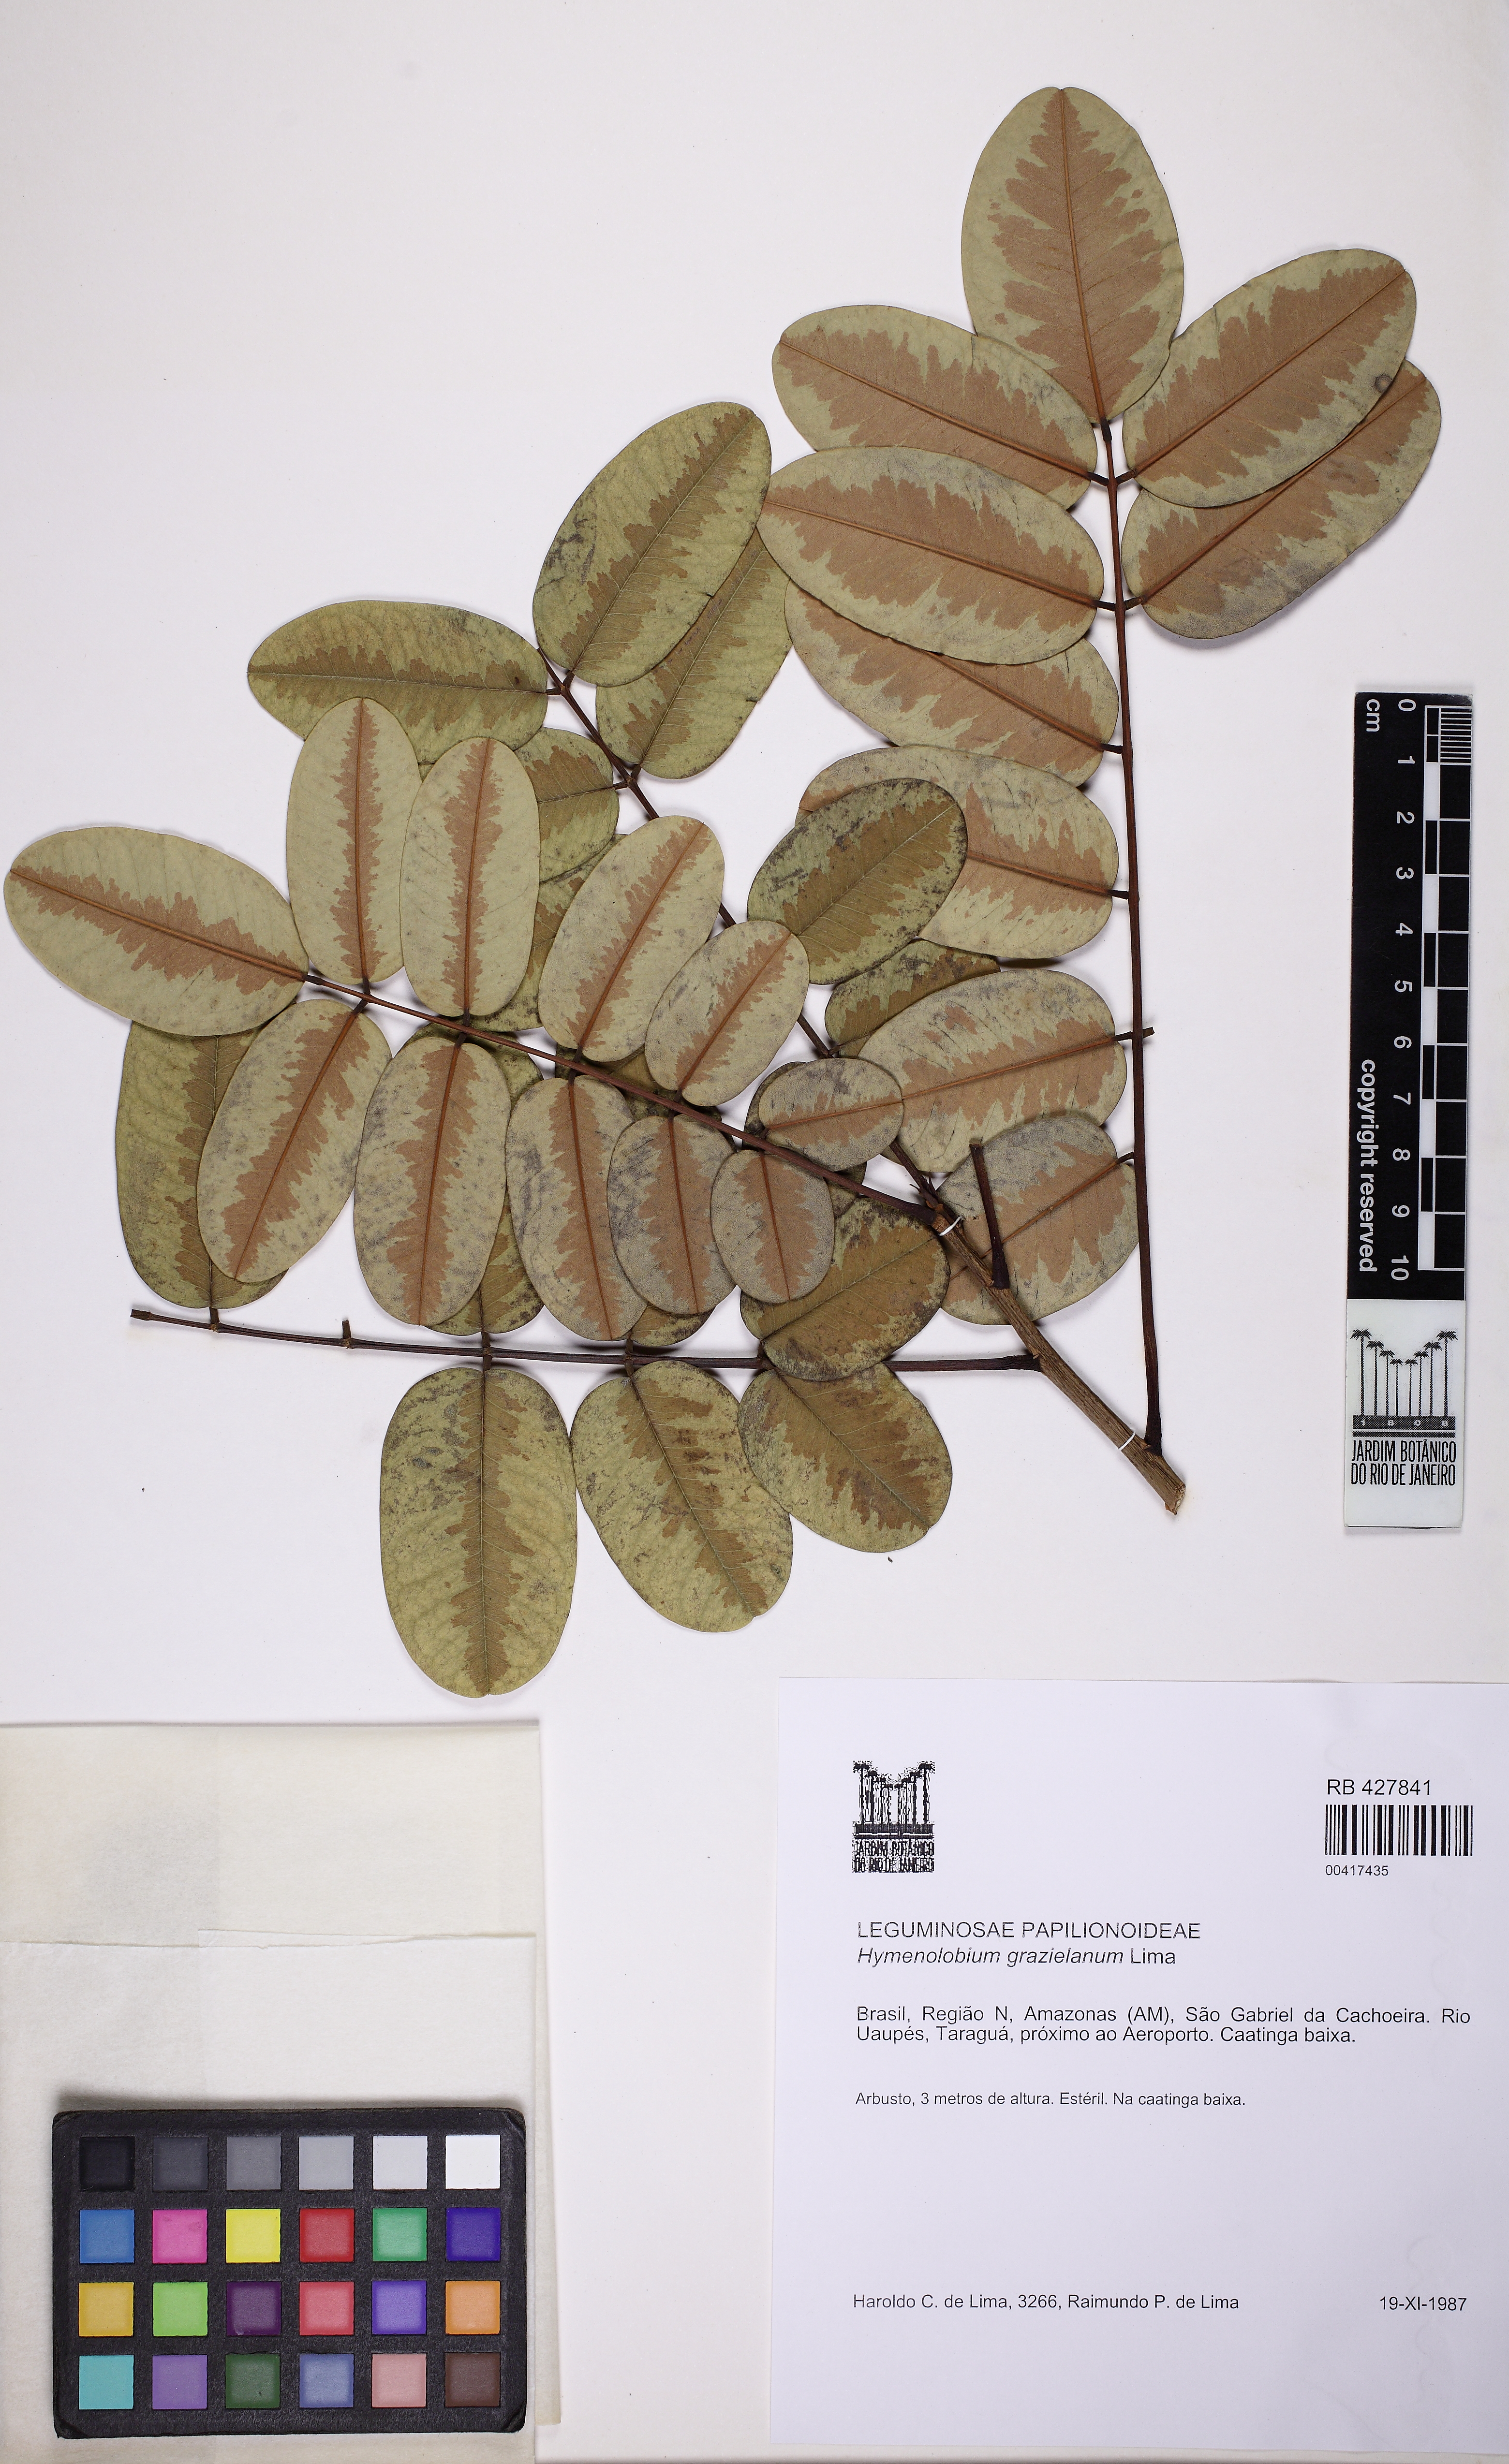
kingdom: Plantae
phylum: Tracheophyta
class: Magnoliopsida
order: Fabales
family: Fabaceae
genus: Hymenolobium
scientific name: Hymenolobium grazielanum
